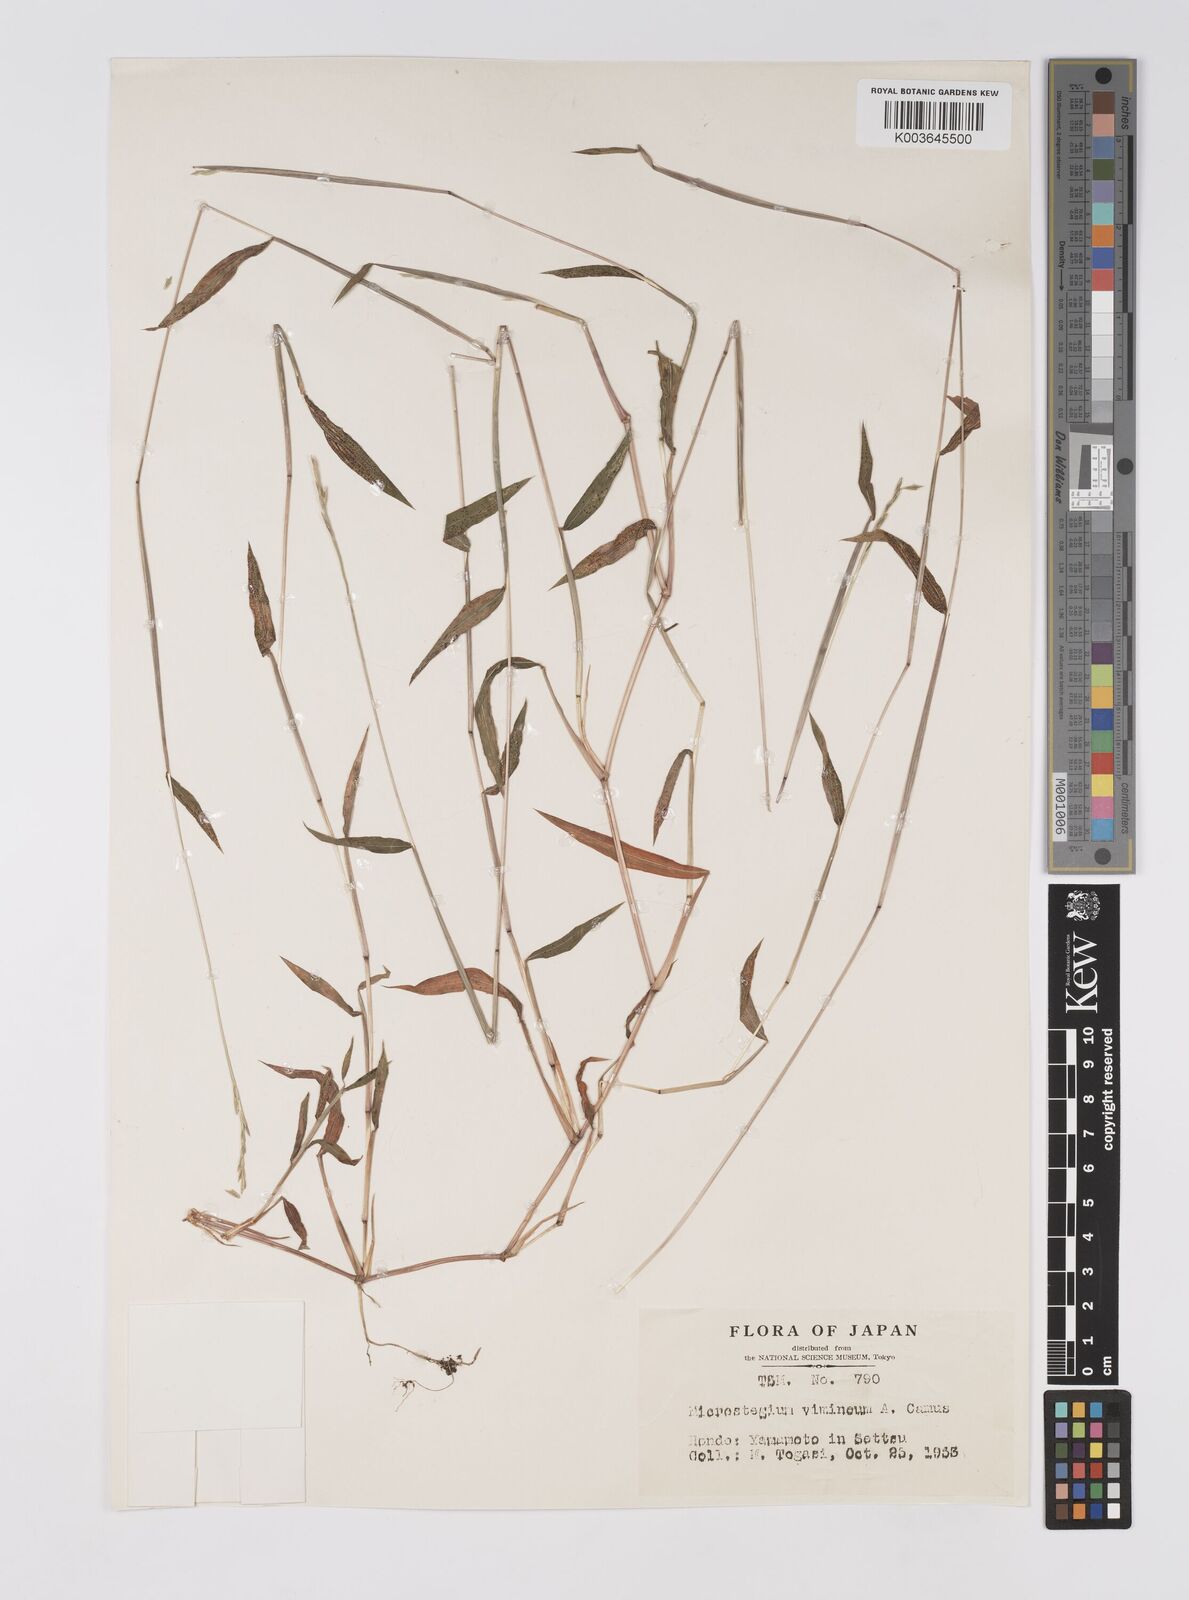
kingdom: Plantae
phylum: Tracheophyta
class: Liliopsida
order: Poales
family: Poaceae
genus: Microstegium
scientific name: Microstegium vimineum
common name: Japanese stiltgrass
